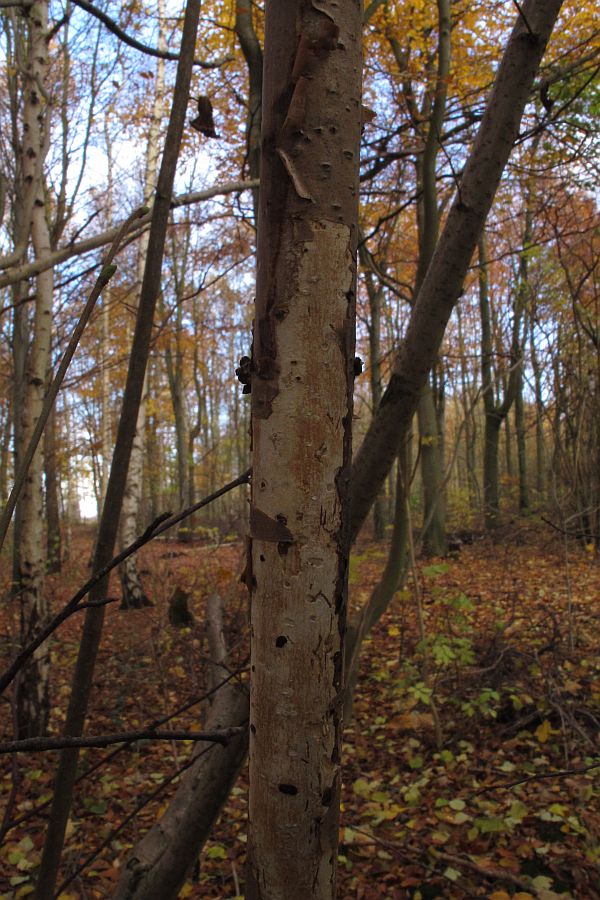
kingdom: Fungi
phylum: Basidiomycota
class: Agaricomycetes
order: Corticiales
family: Vuilleminiaceae
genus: Vuilleminia
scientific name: Vuilleminia coryli
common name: hassel-barksprænger
